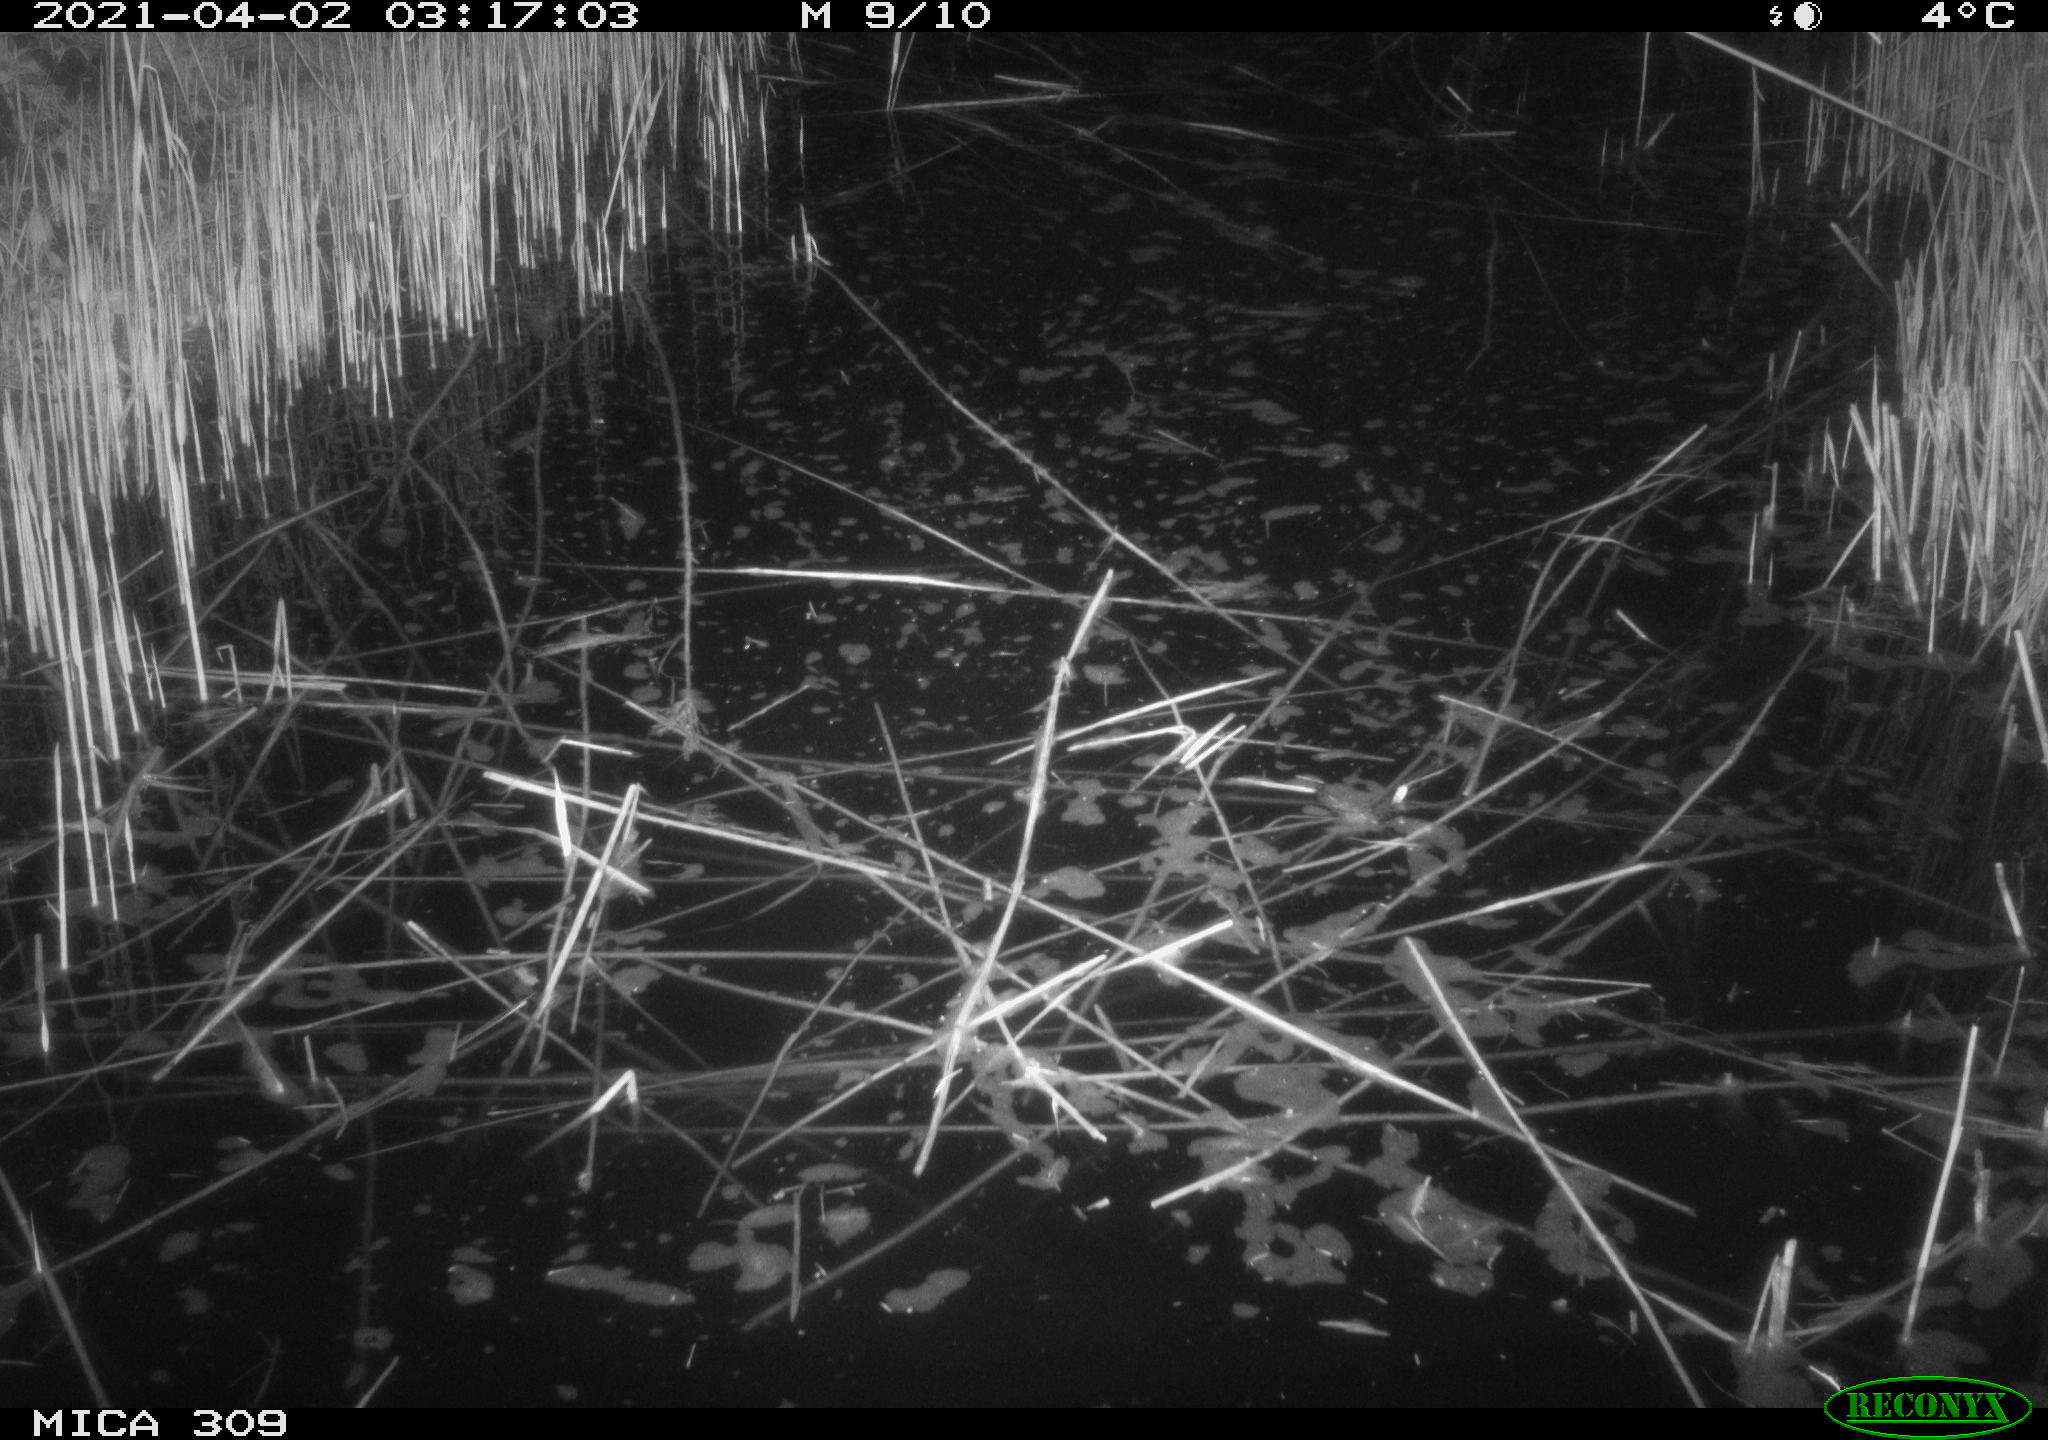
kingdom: Animalia
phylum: Chordata
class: Aves
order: Anseriformes
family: Anatidae
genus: Anas
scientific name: Anas platyrhynchos
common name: Mallard
